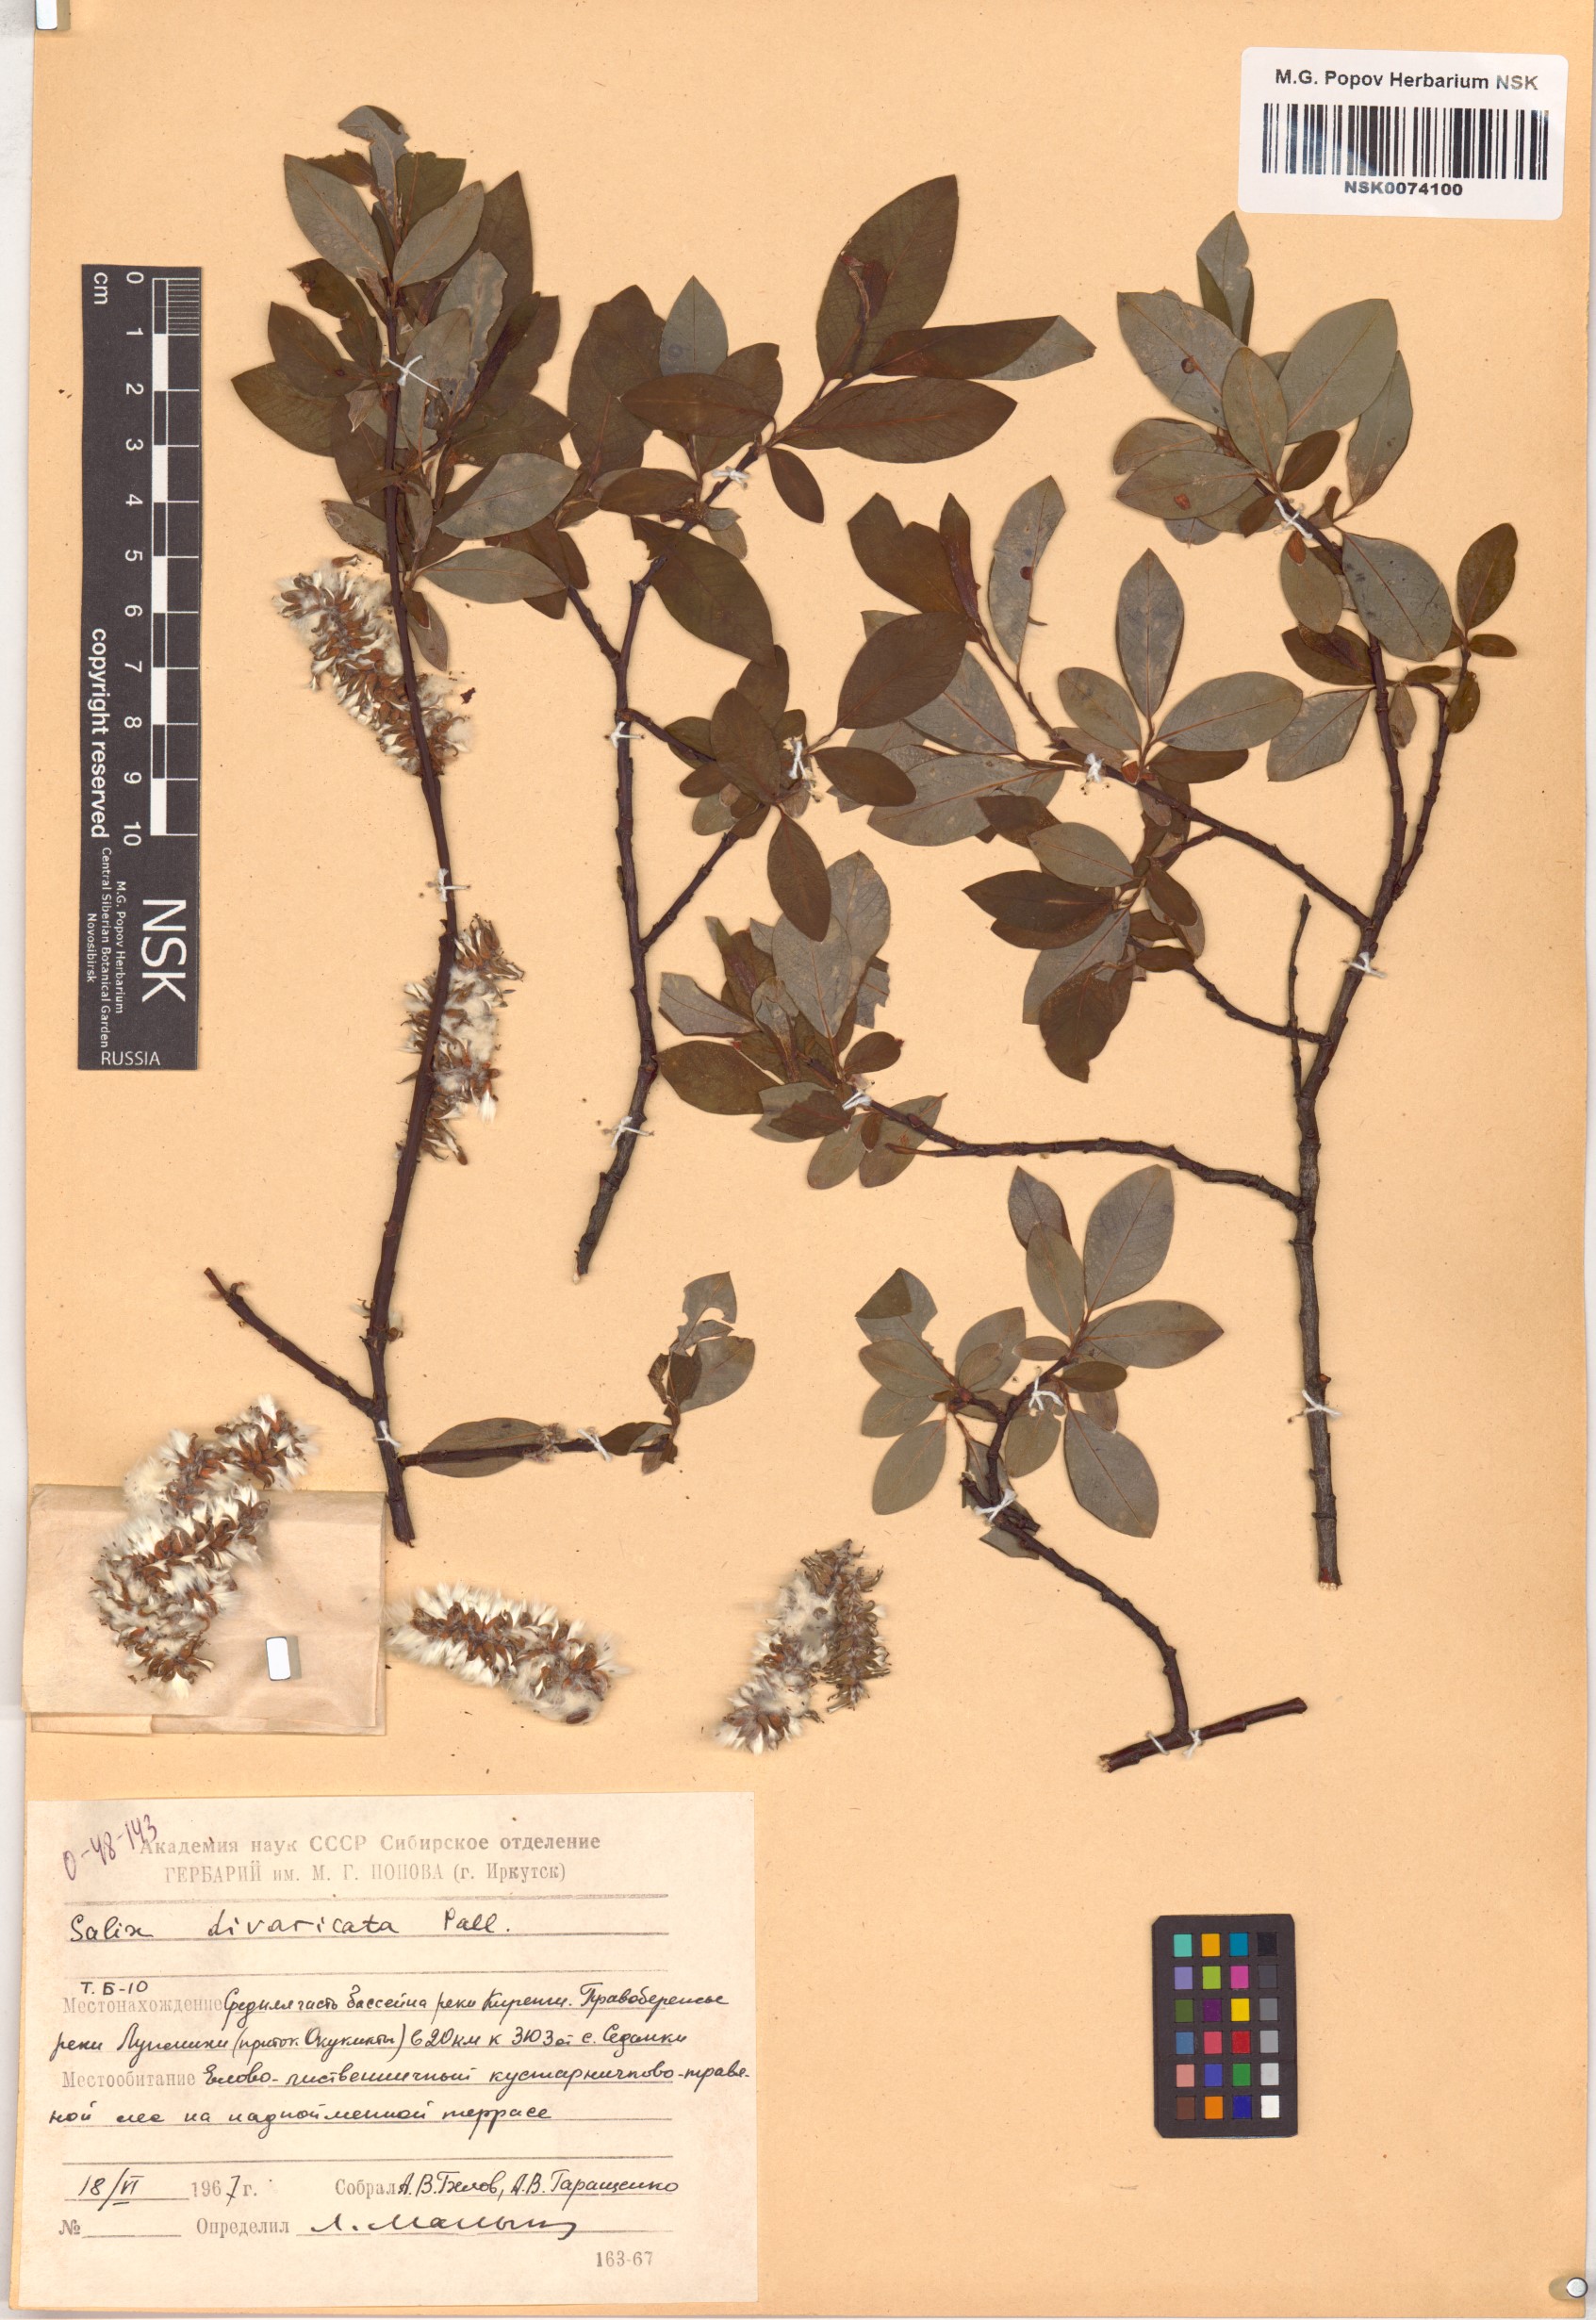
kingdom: Plantae
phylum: Tracheophyta
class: Magnoliopsida
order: Malpighiales
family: Salicaceae
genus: Salix
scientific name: Salix divaricata
